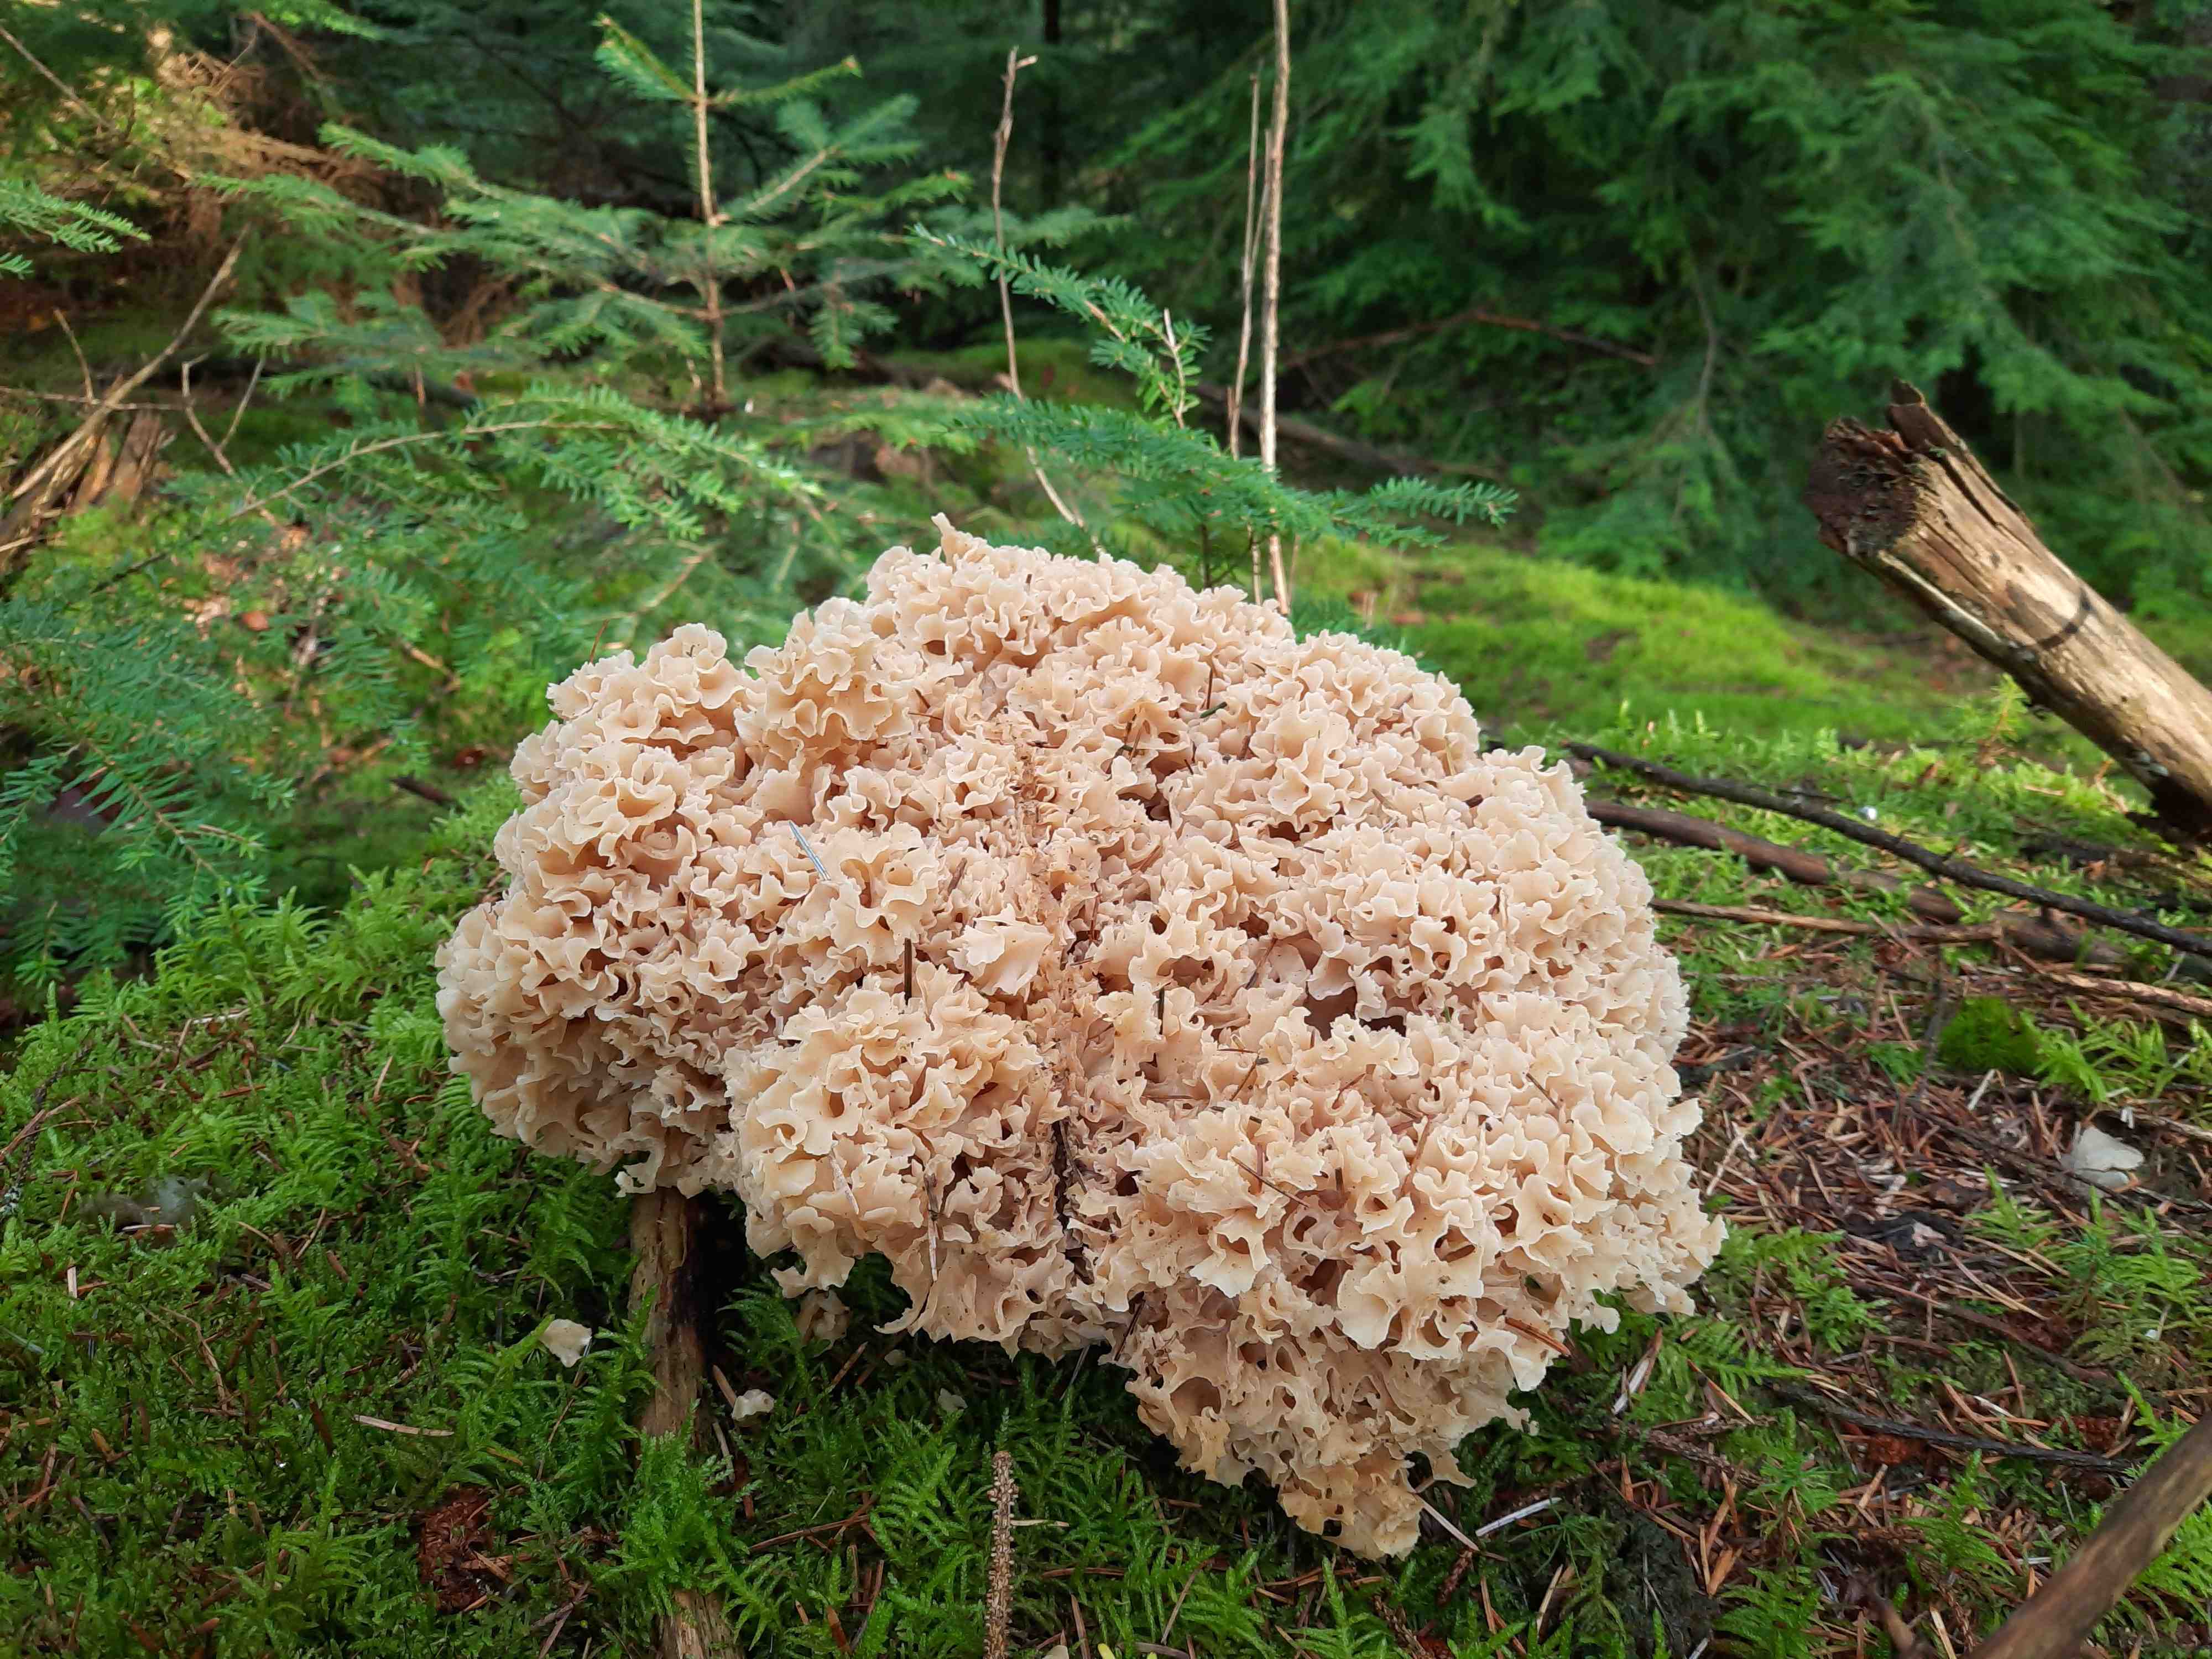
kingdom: Fungi
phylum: Basidiomycota
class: Agaricomycetes
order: Polyporales
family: Sparassidaceae
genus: Sparassis
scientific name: Sparassis crispa
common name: kruset blomkålssvamp
